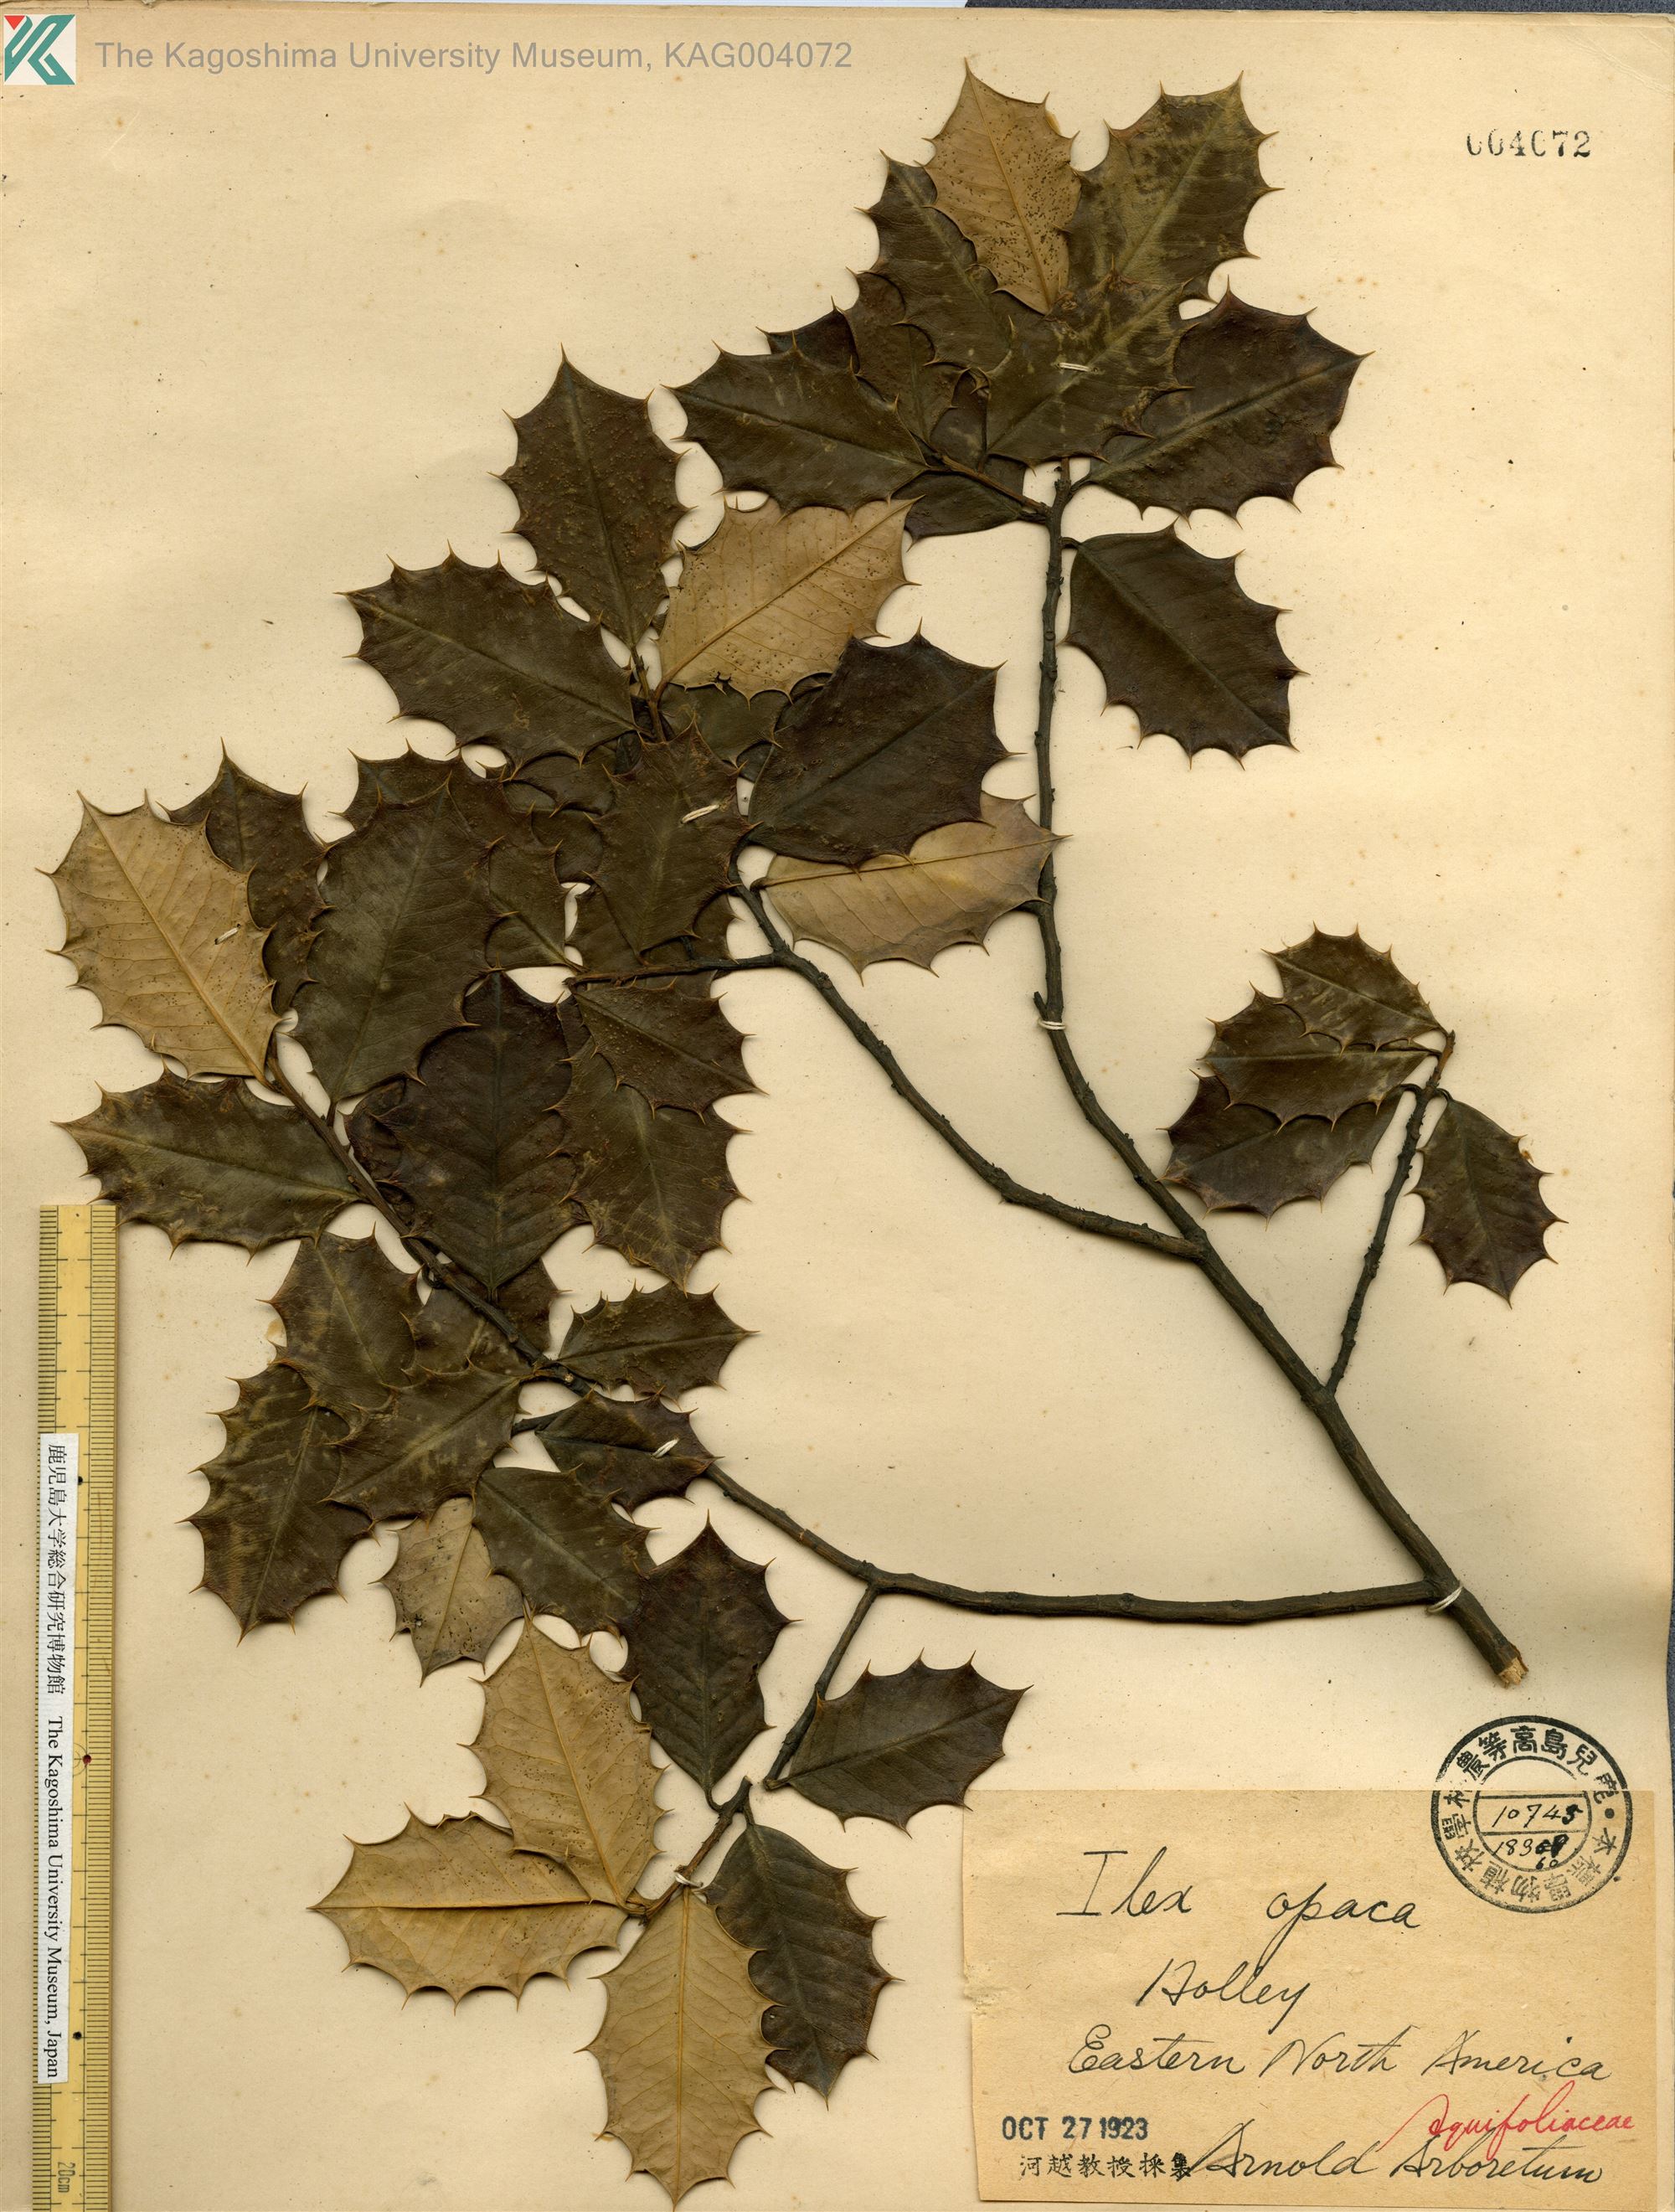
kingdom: Plantae
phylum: Tracheophyta
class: Magnoliopsida
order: Aquifoliales
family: Aquifoliaceae
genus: Ilex
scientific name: Ilex opaca
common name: American holly
